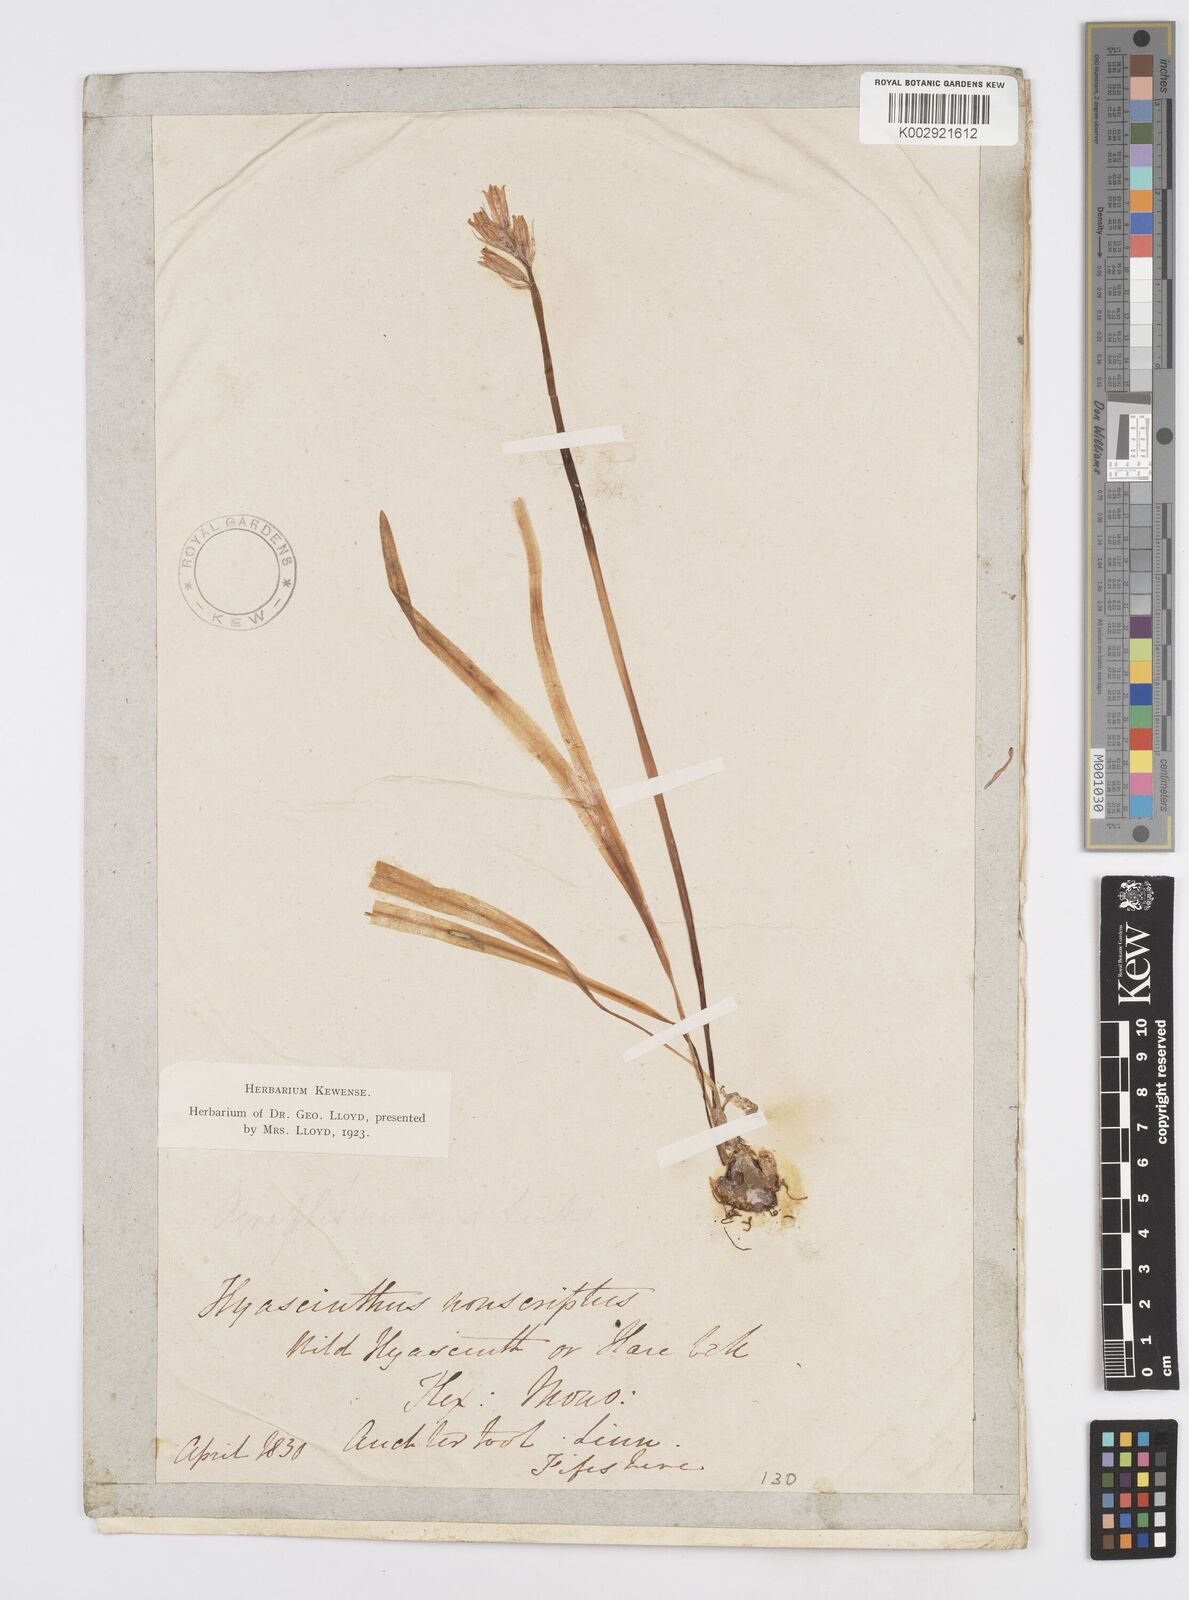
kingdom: Plantae
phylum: Tracheophyta
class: Liliopsida
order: Asparagales
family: Asparagaceae
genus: Hyacinthoides
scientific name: Hyacinthoides non-scripta
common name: Bluebell
